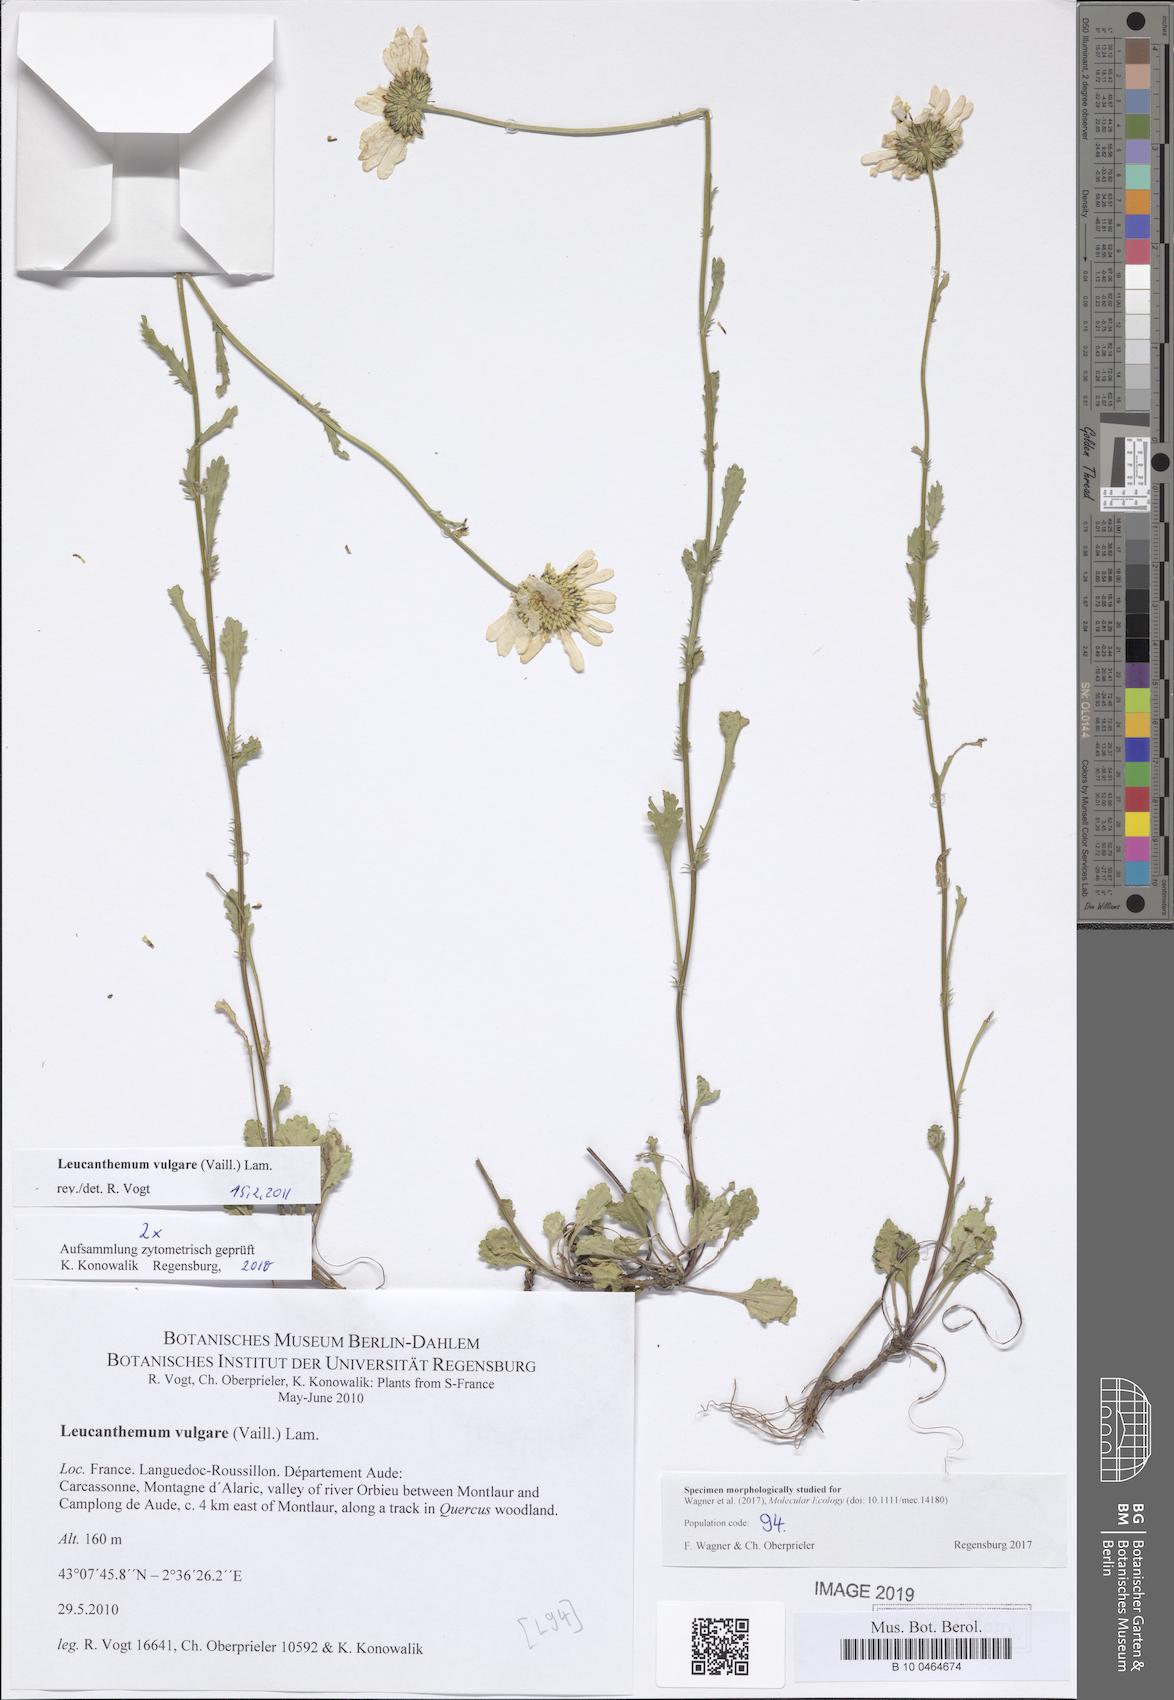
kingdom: Plantae
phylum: Tracheophyta
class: Magnoliopsida
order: Asterales
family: Asteraceae
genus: Leucanthemum
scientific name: Leucanthemum vulgare
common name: Oxeye daisy
